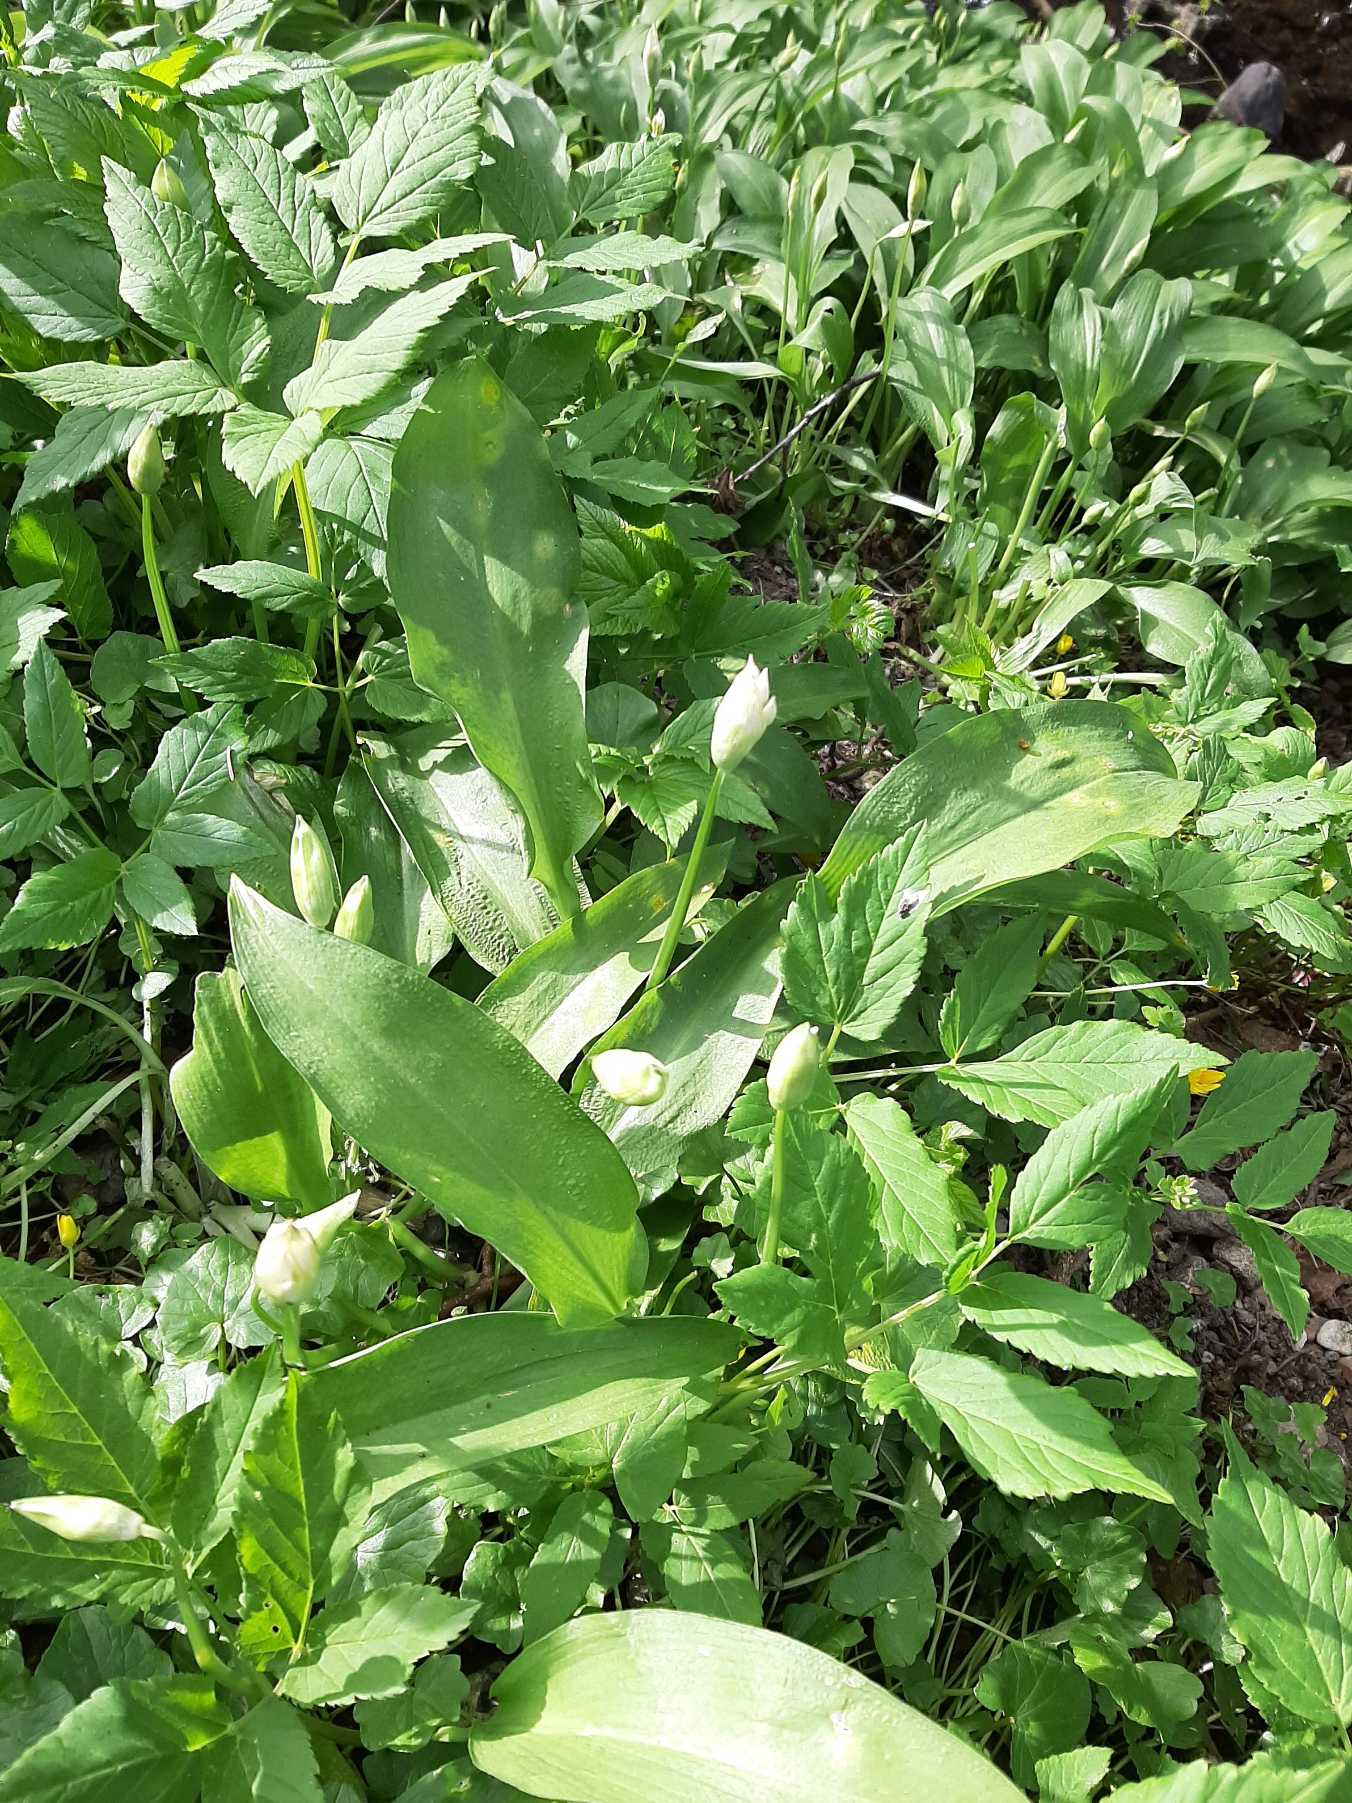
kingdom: Plantae
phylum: Tracheophyta
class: Liliopsida
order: Asparagales
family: Amaryllidaceae
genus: Allium
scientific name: Allium ursinum
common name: Rams-løg
